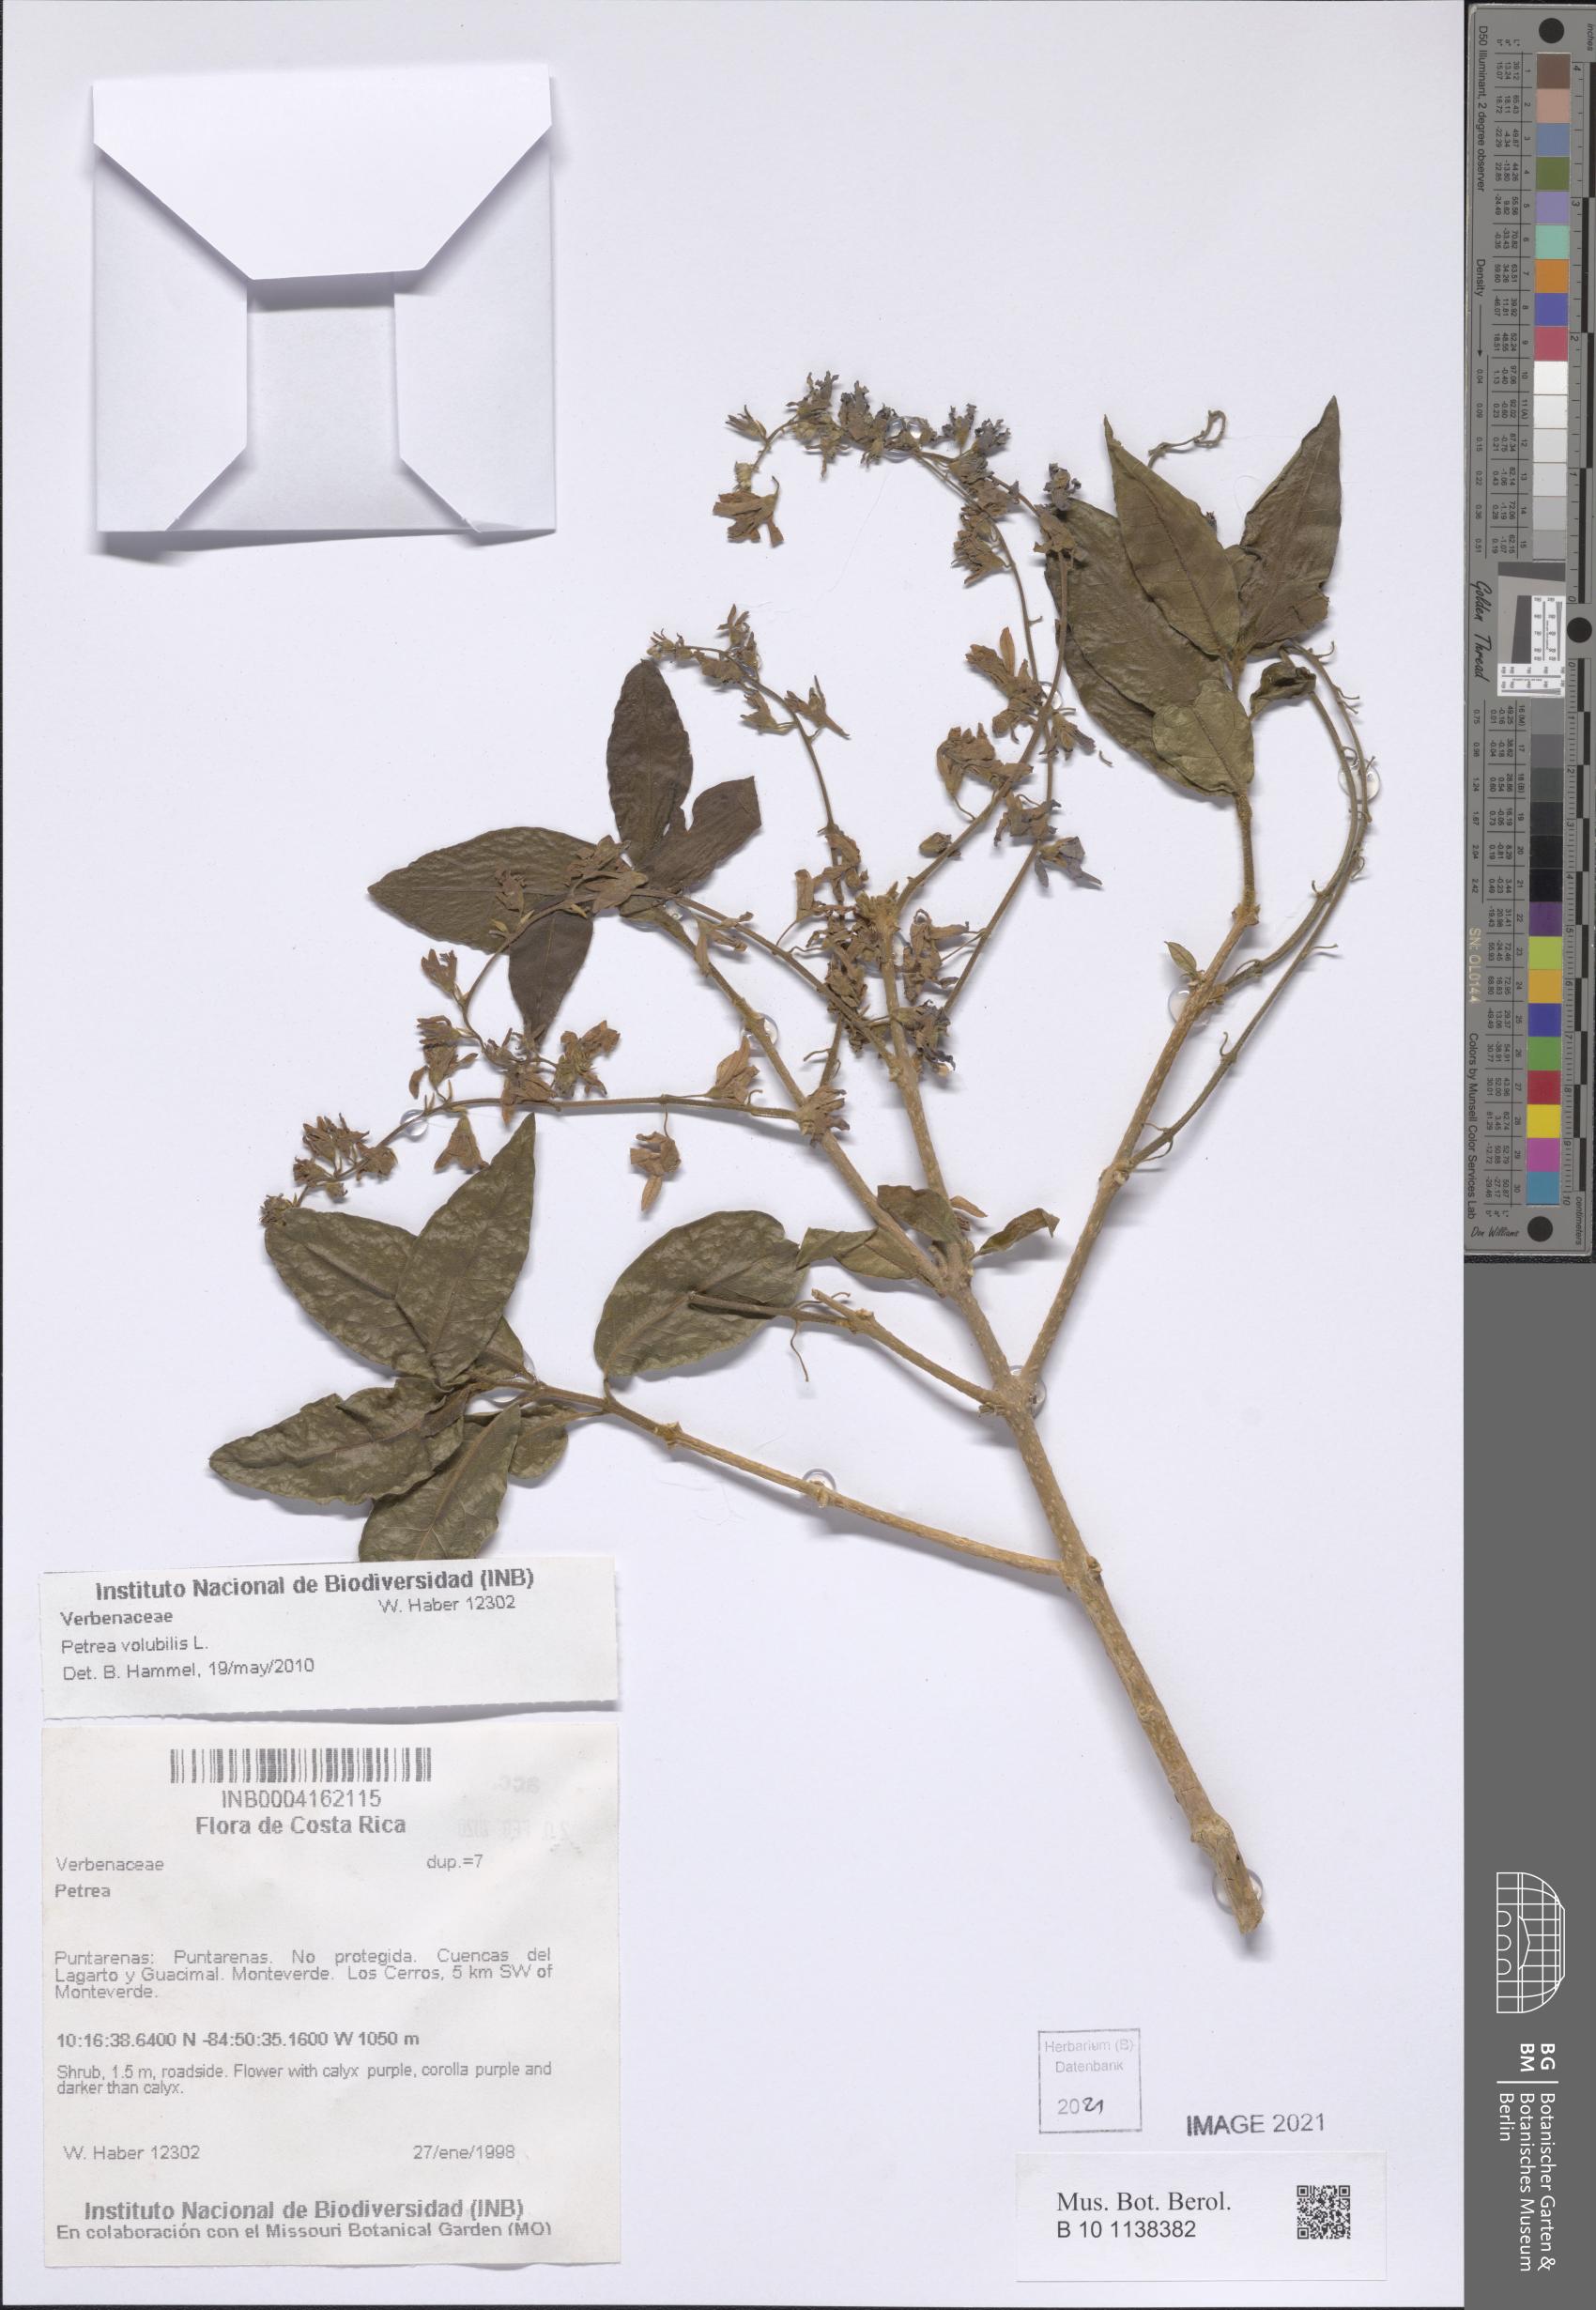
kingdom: Plantae
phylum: Tracheophyta
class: Magnoliopsida
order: Lamiales
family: Verbenaceae
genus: Petrea
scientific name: Petrea volubilis
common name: Queen's-wreath
